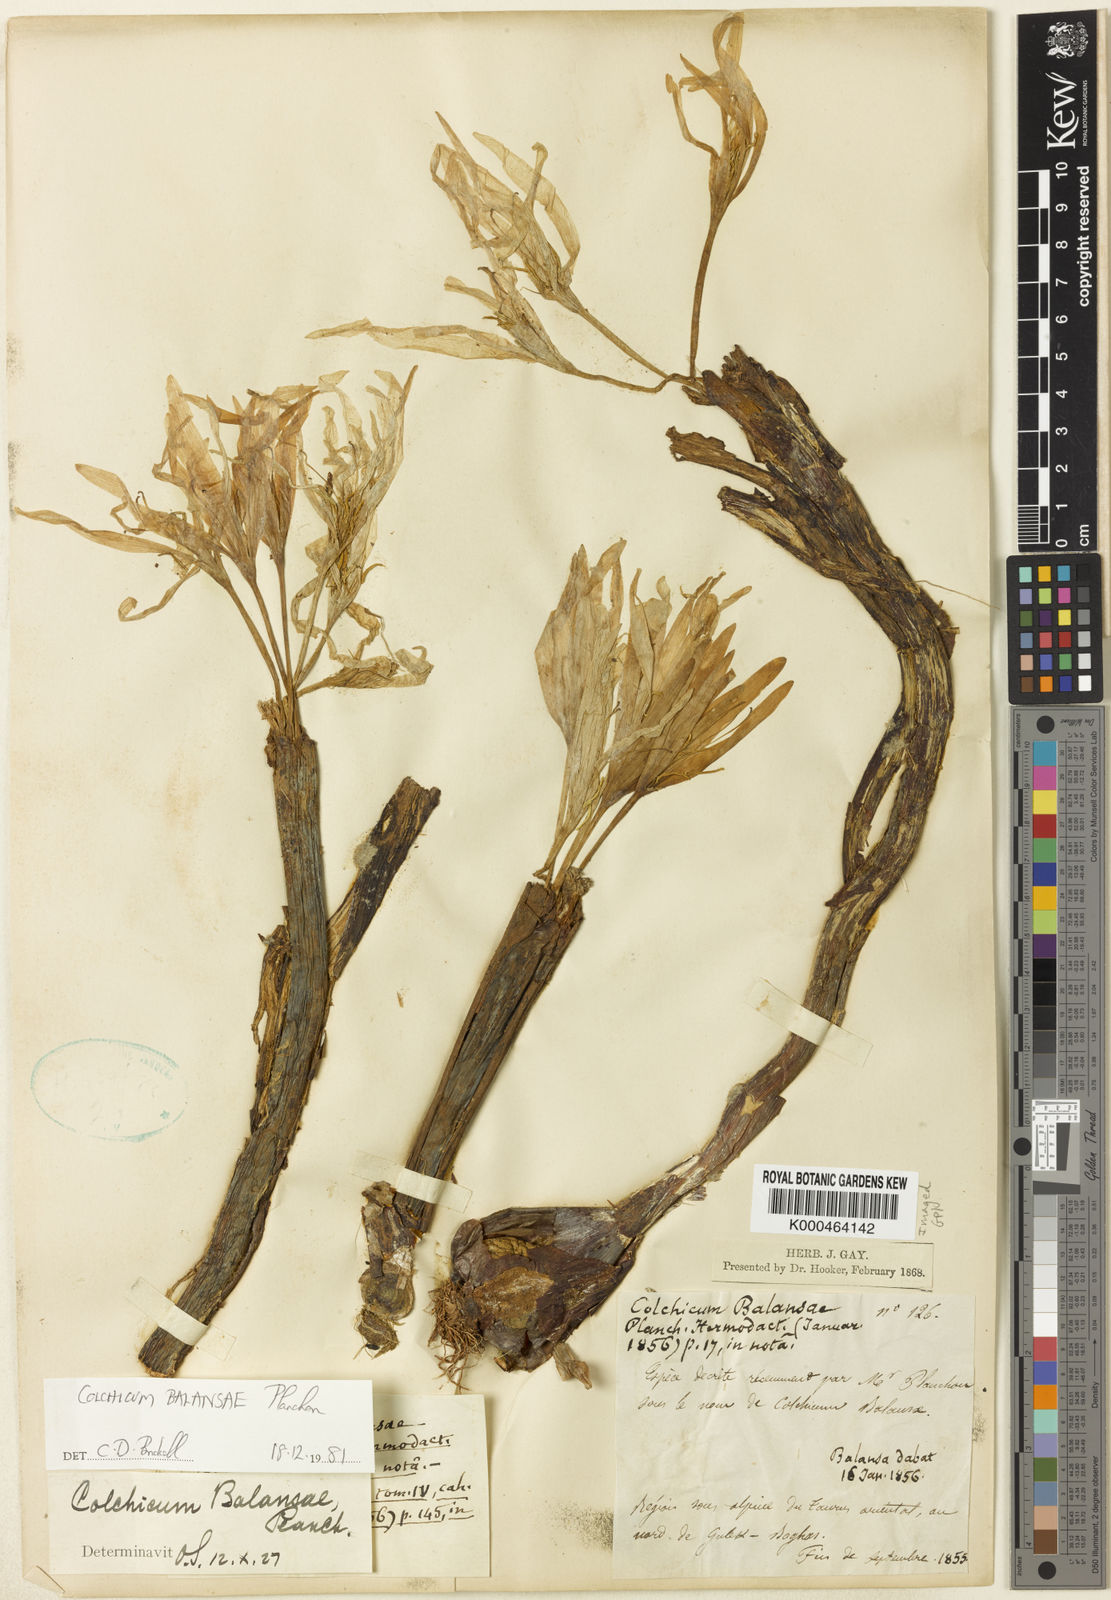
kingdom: Plantae
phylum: Tracheophyta
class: Liliopsida
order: Liliales
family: Colchicaceae
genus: Colchicum
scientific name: Colchicum balansae
